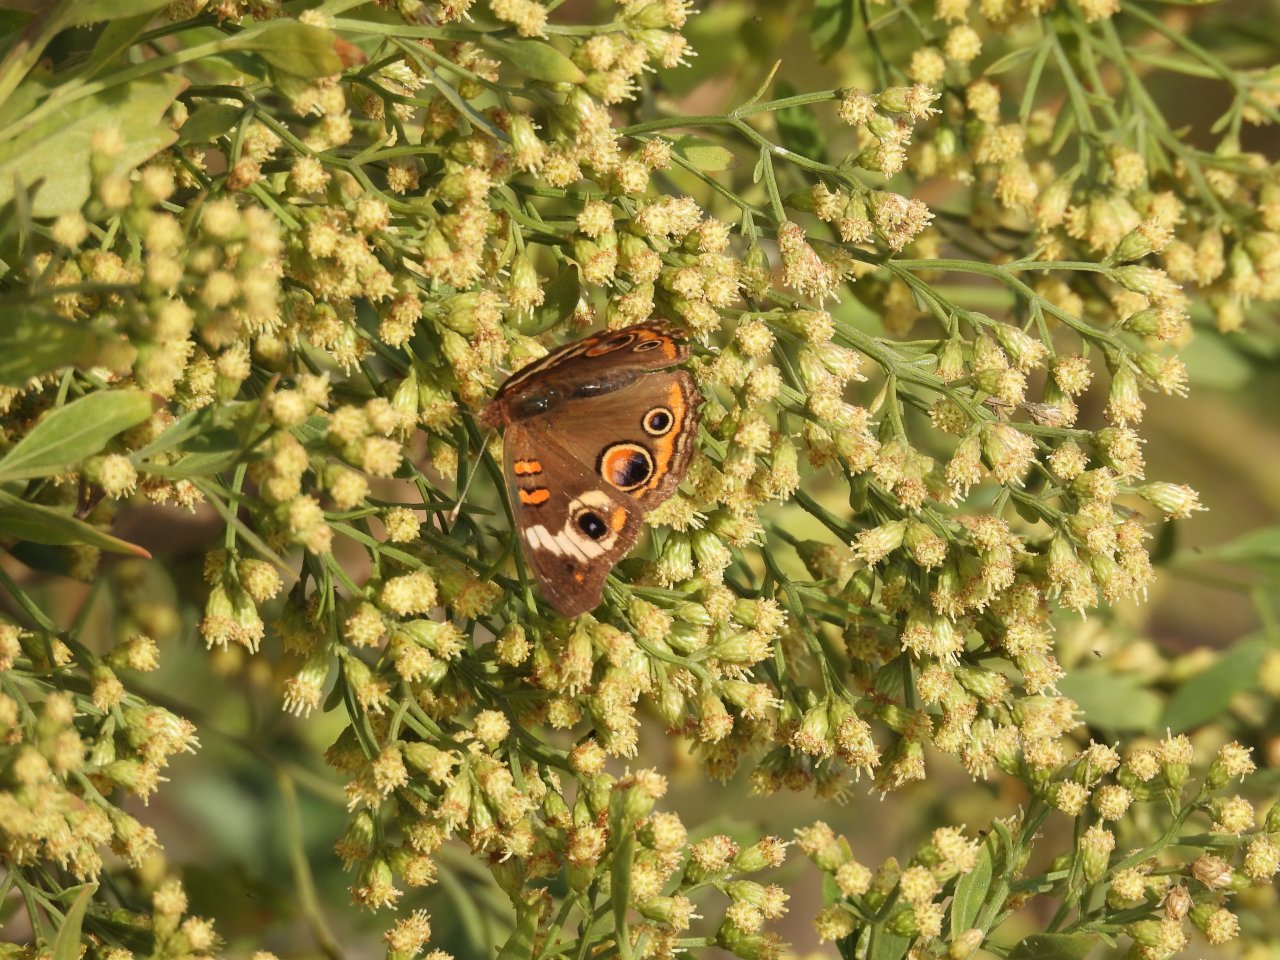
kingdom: Animalia
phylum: Arthropoda
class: Insecta
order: Lepidoptera
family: Nymphalidae
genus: Junonia
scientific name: Junonia coenia
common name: Common Buckeye
